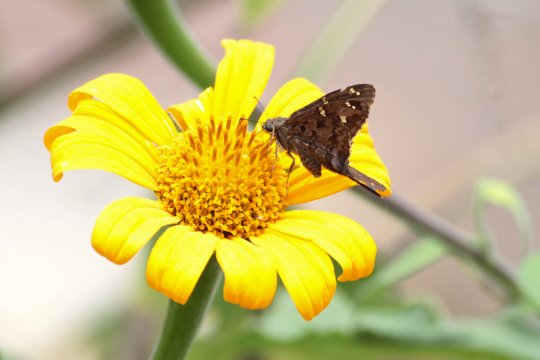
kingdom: Animalia
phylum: Arthropoda
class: Insecta
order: Lepidoptera
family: Hesperiidae
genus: Urbanus
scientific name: Urbanus dorantes
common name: Dorantes Longtail
